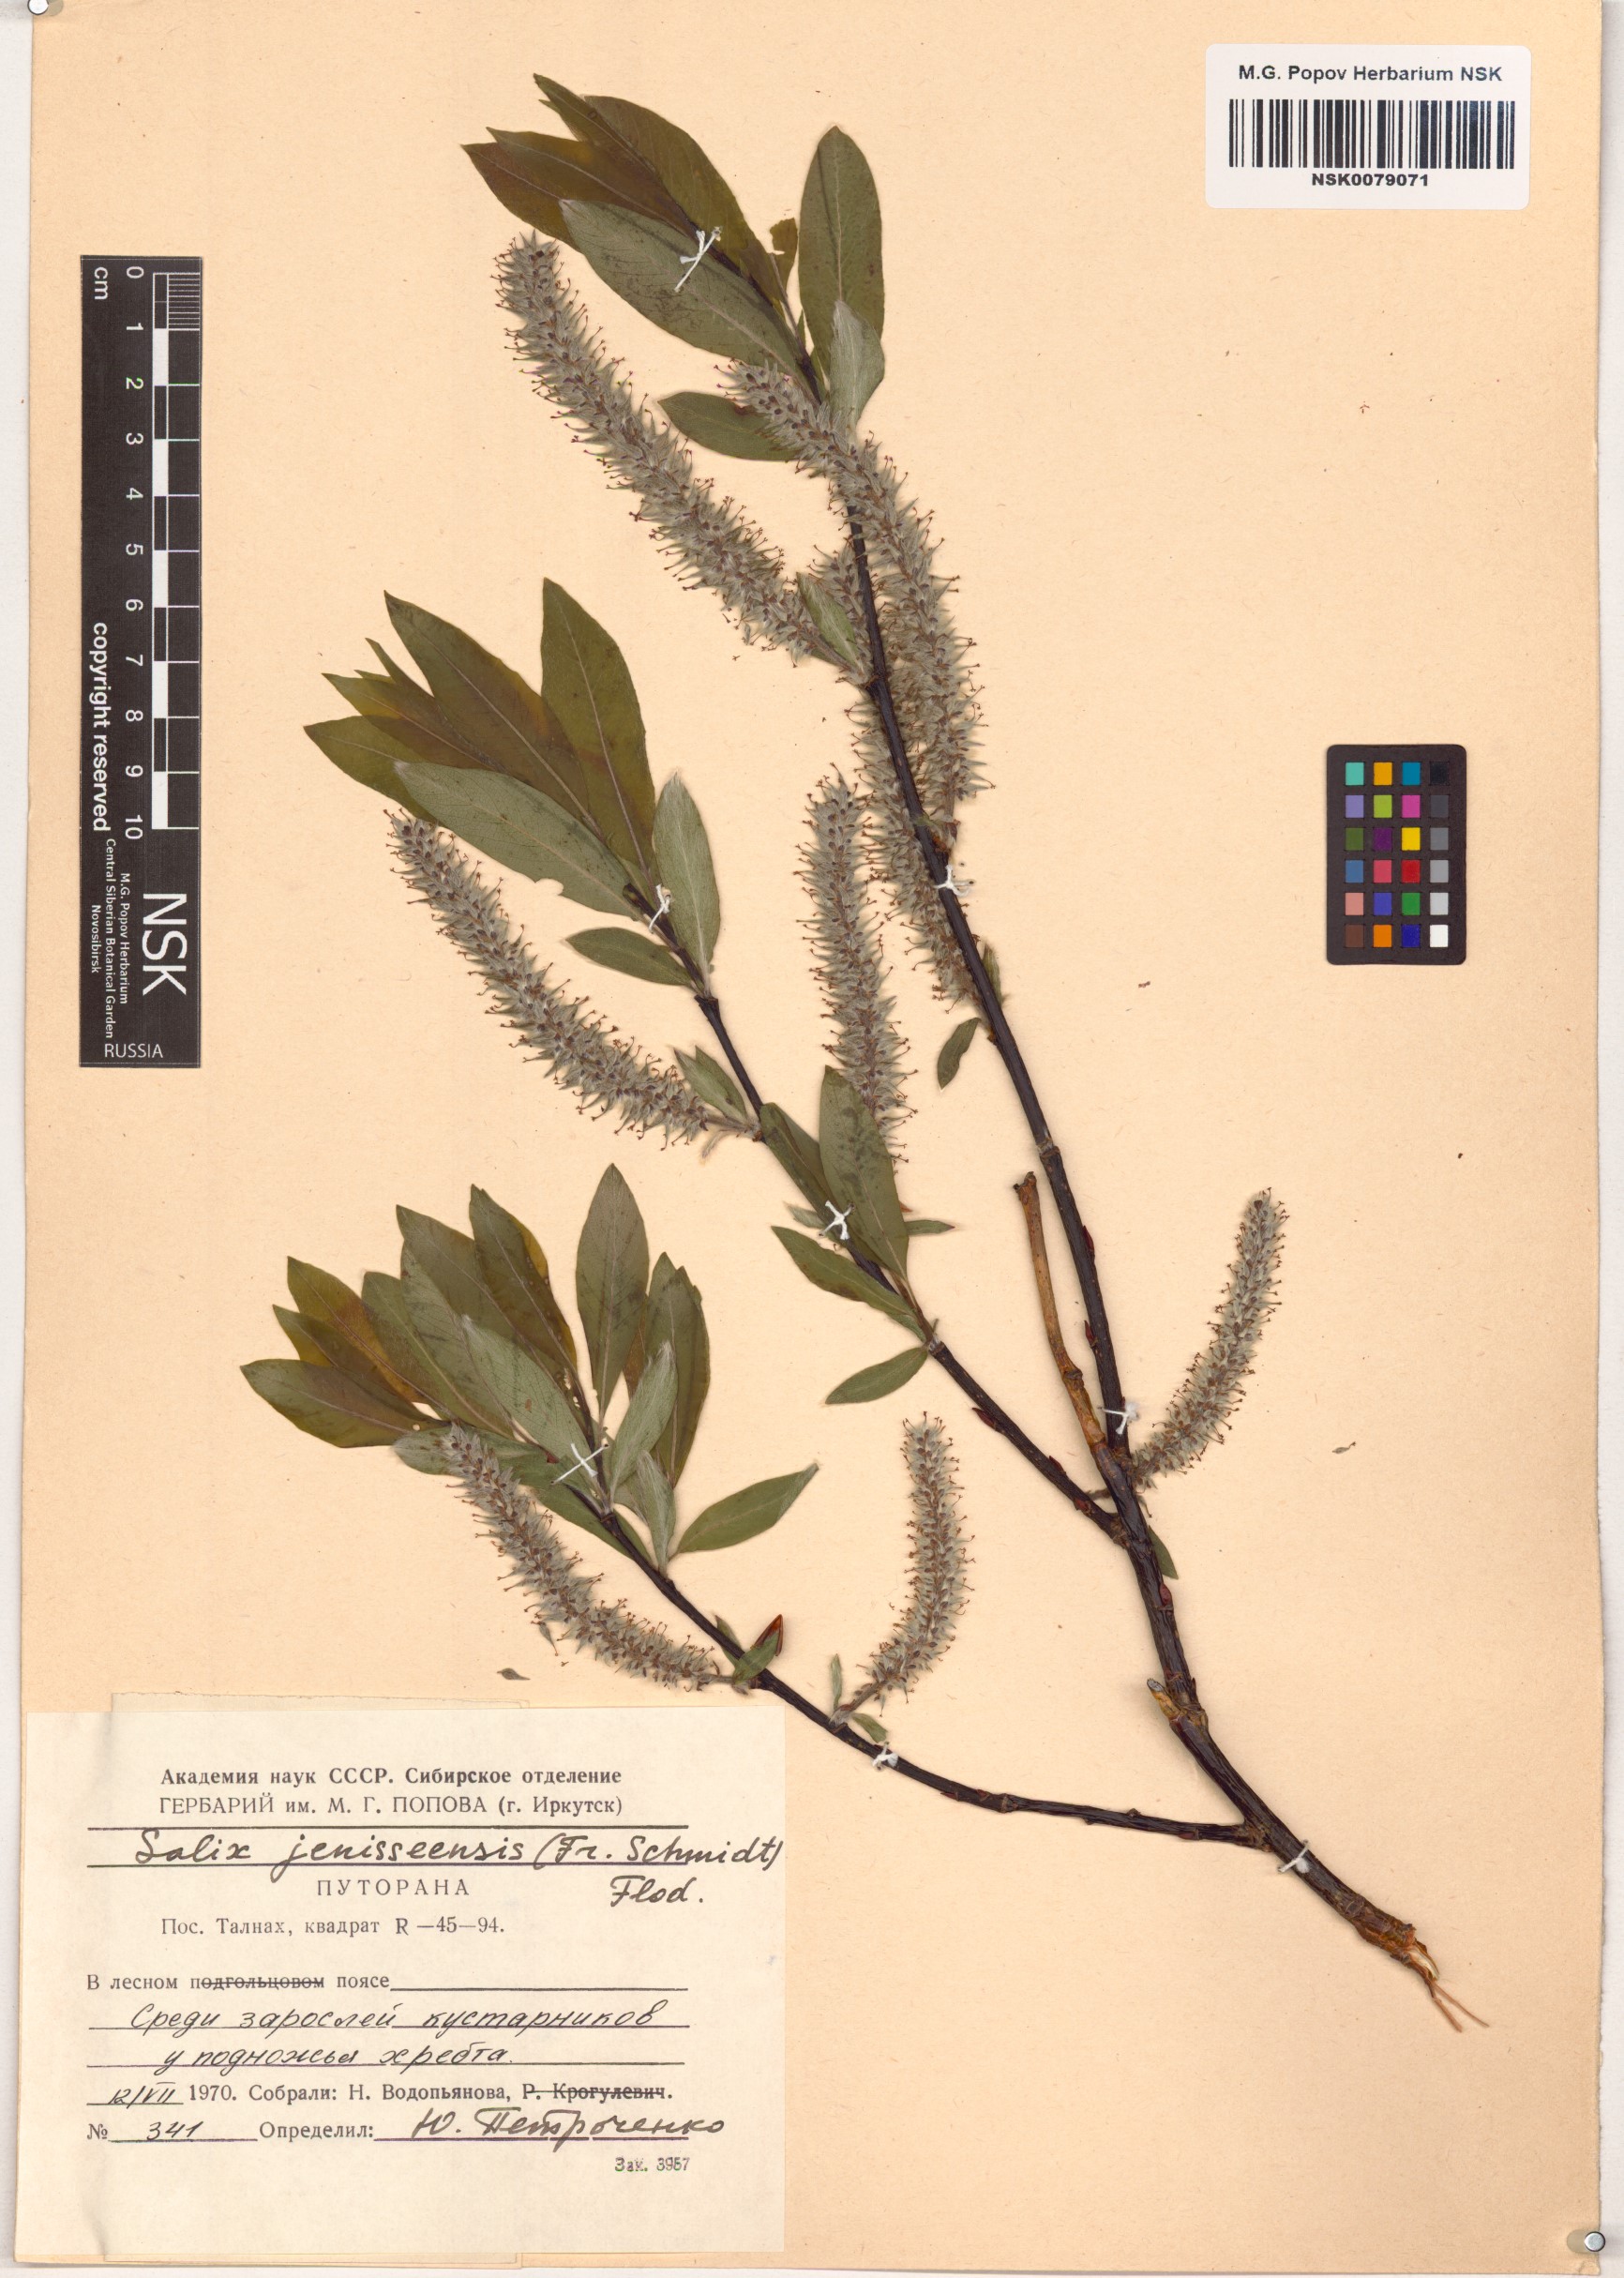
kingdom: Plantae
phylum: Tracheophyta
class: Magnoliopsida
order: Malpighiales
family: Salicaceae
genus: Salix
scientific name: Salix jenisseensis
